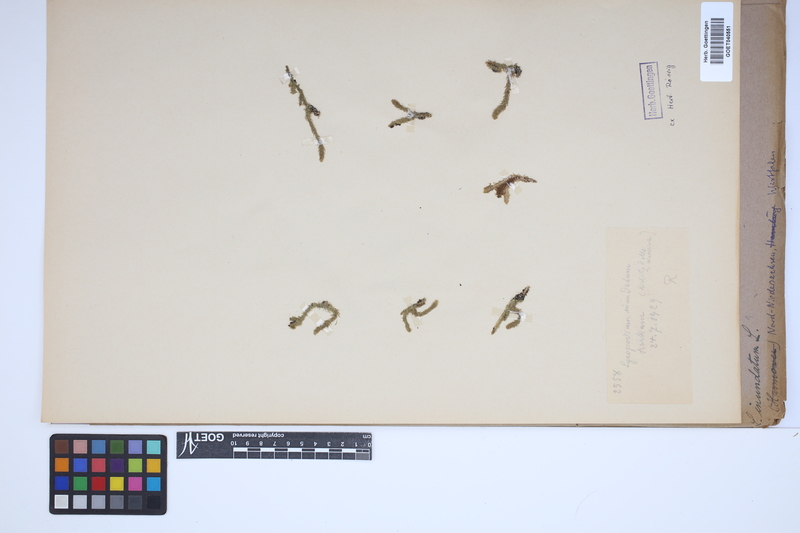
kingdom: Plantae
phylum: Tracheophyta
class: Lycopodiopsida
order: Lycopodiales
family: Lycopodiaceae
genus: Lycopodiella
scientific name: Lycopodiella inundata
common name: Marsh clubmoss
